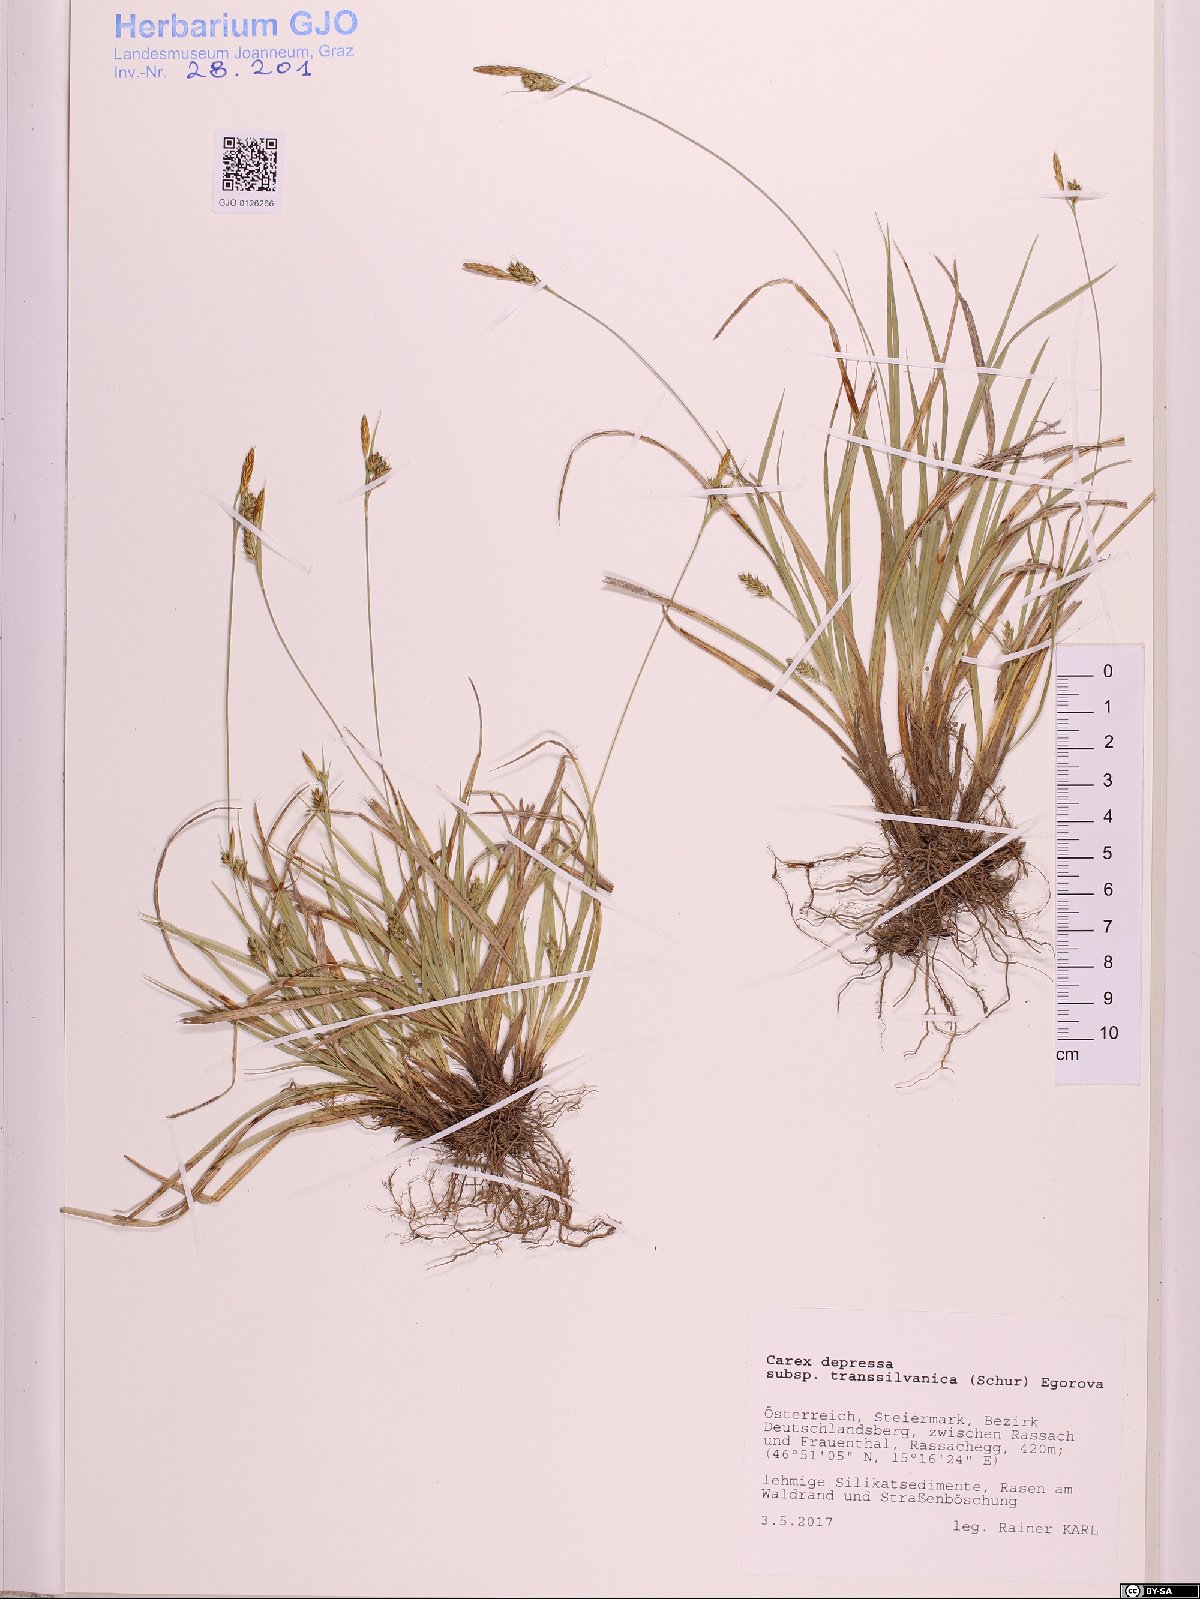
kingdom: Plantae
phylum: Tracheophyta
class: Liliopsida
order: Poales
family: Cyperaceae
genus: Carex
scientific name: Carex depressa
